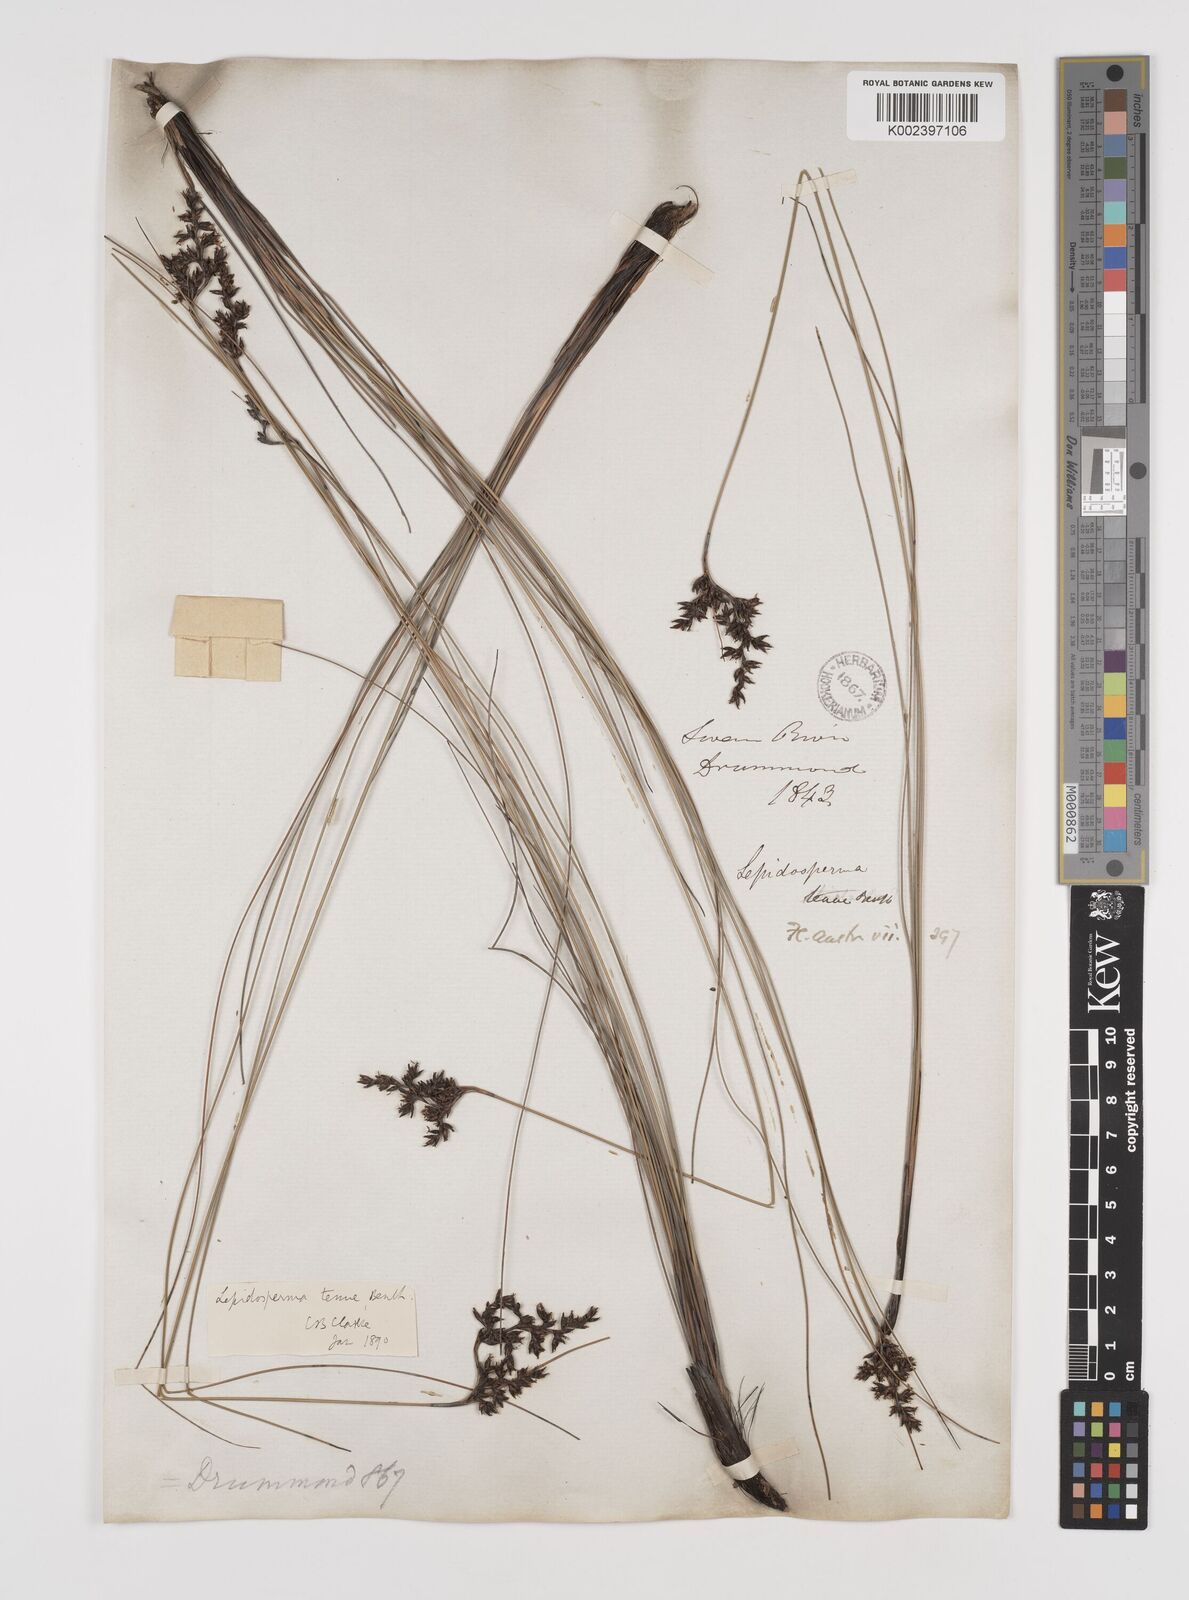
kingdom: Plantae
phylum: Tracheophyta
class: Liliopsida
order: Poales
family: Cyperaceae
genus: Lepidosperma
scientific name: Lepidosperma tenue
